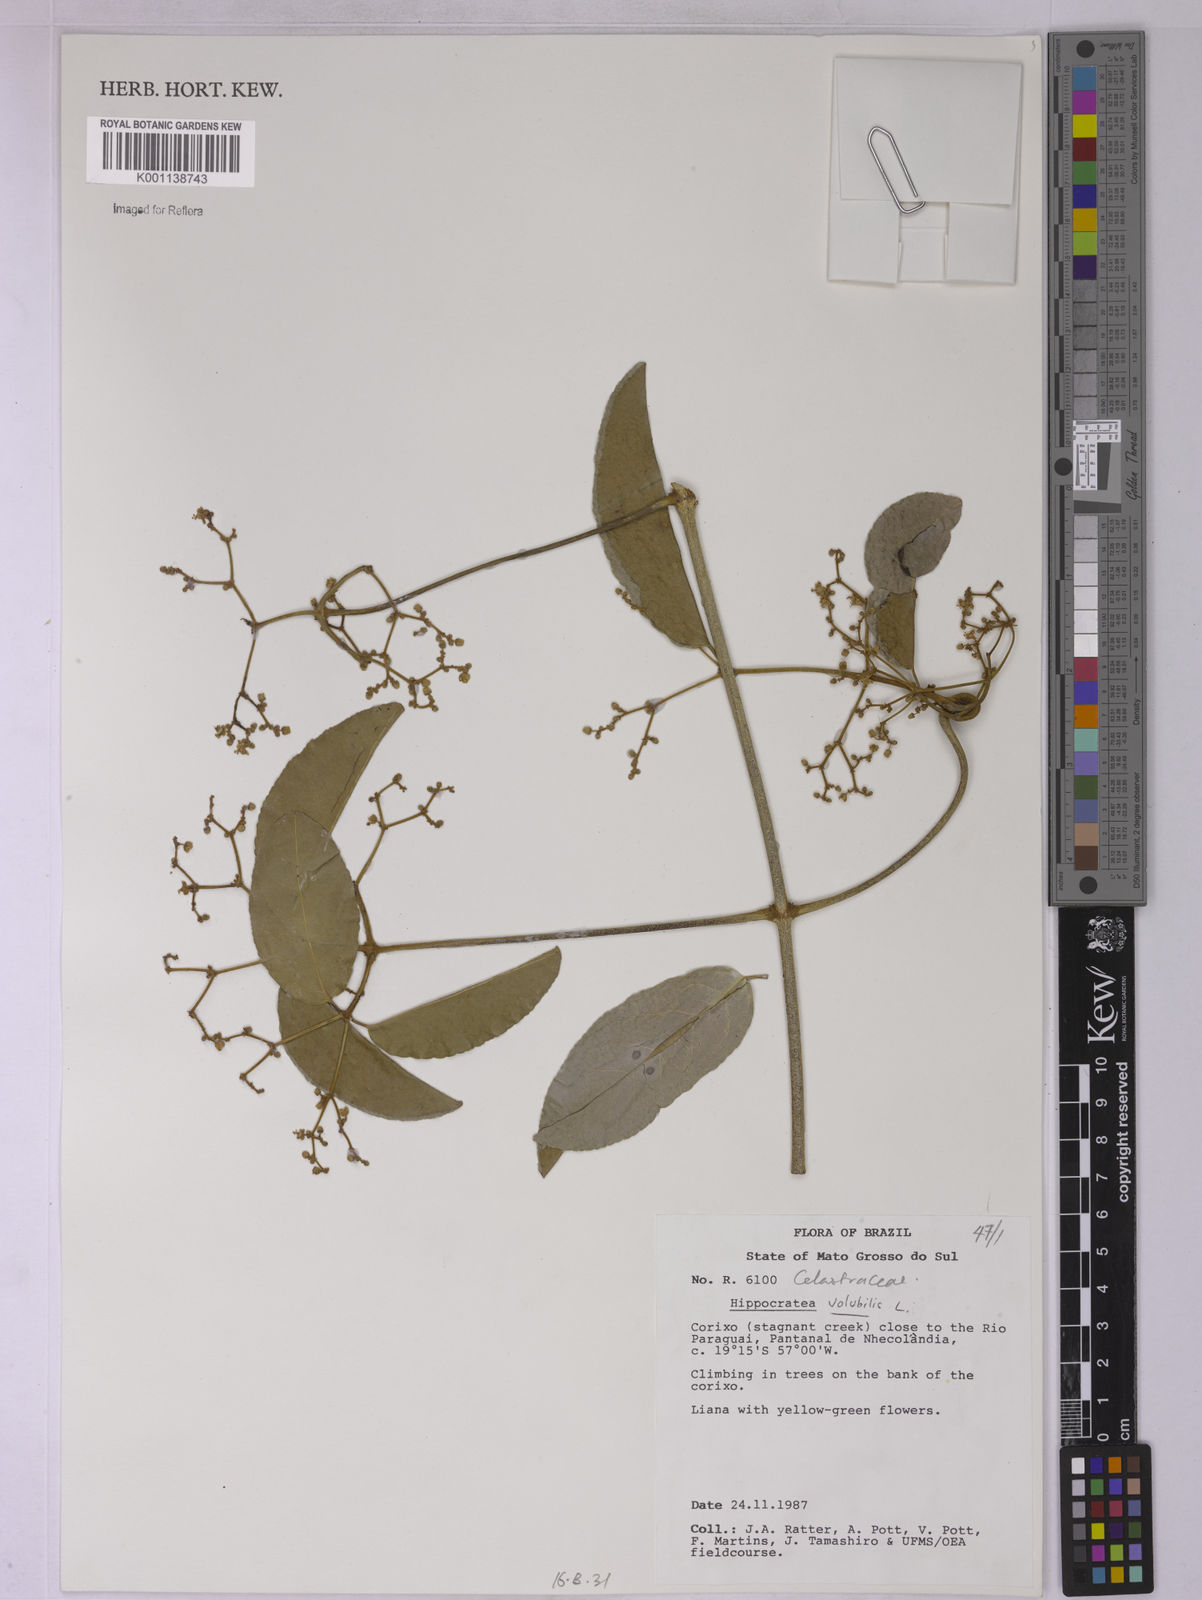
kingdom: Plantae
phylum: Tracheophyta
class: Magnoliopsida
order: Celastrales
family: Celastraceae
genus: Hippocratea
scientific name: Hippocratea volubilis
